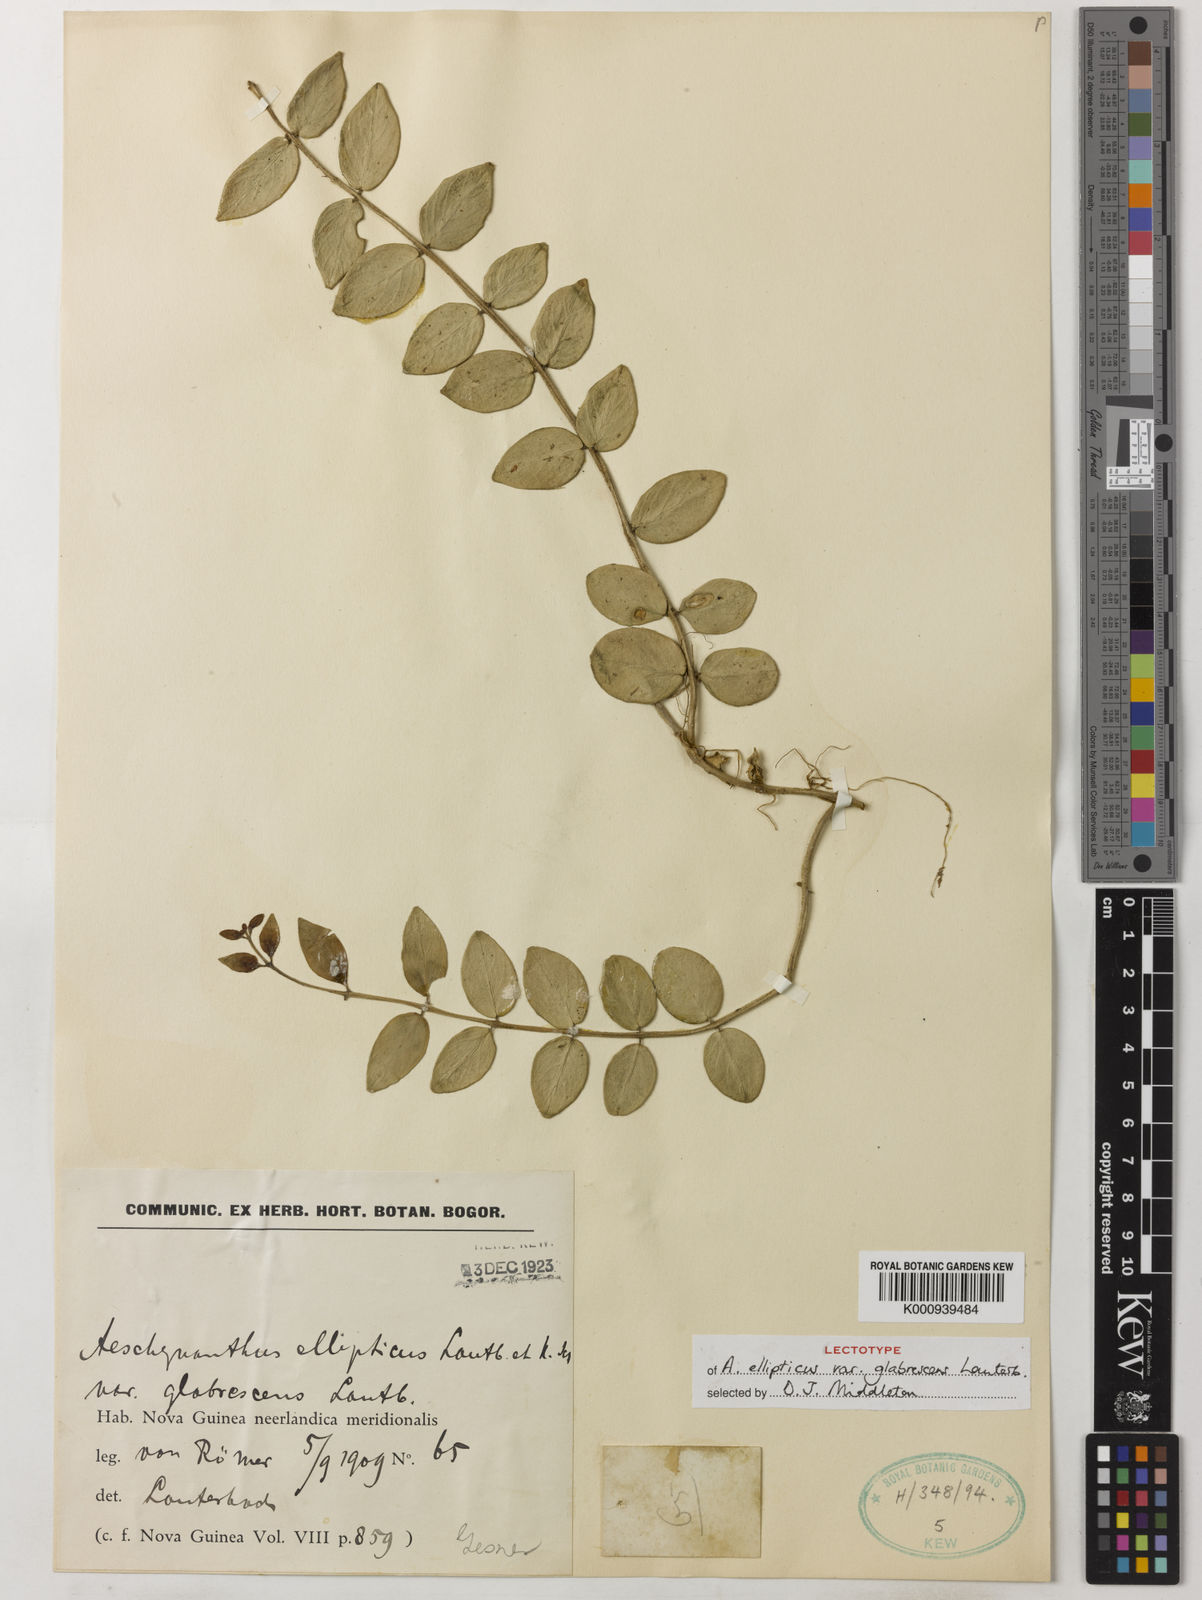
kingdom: Plantae
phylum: Tracheophyta
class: Magnoliopsida
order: Lamiales
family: Gesneriaceae
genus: Aeschynanthus
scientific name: Aeschynanthus
